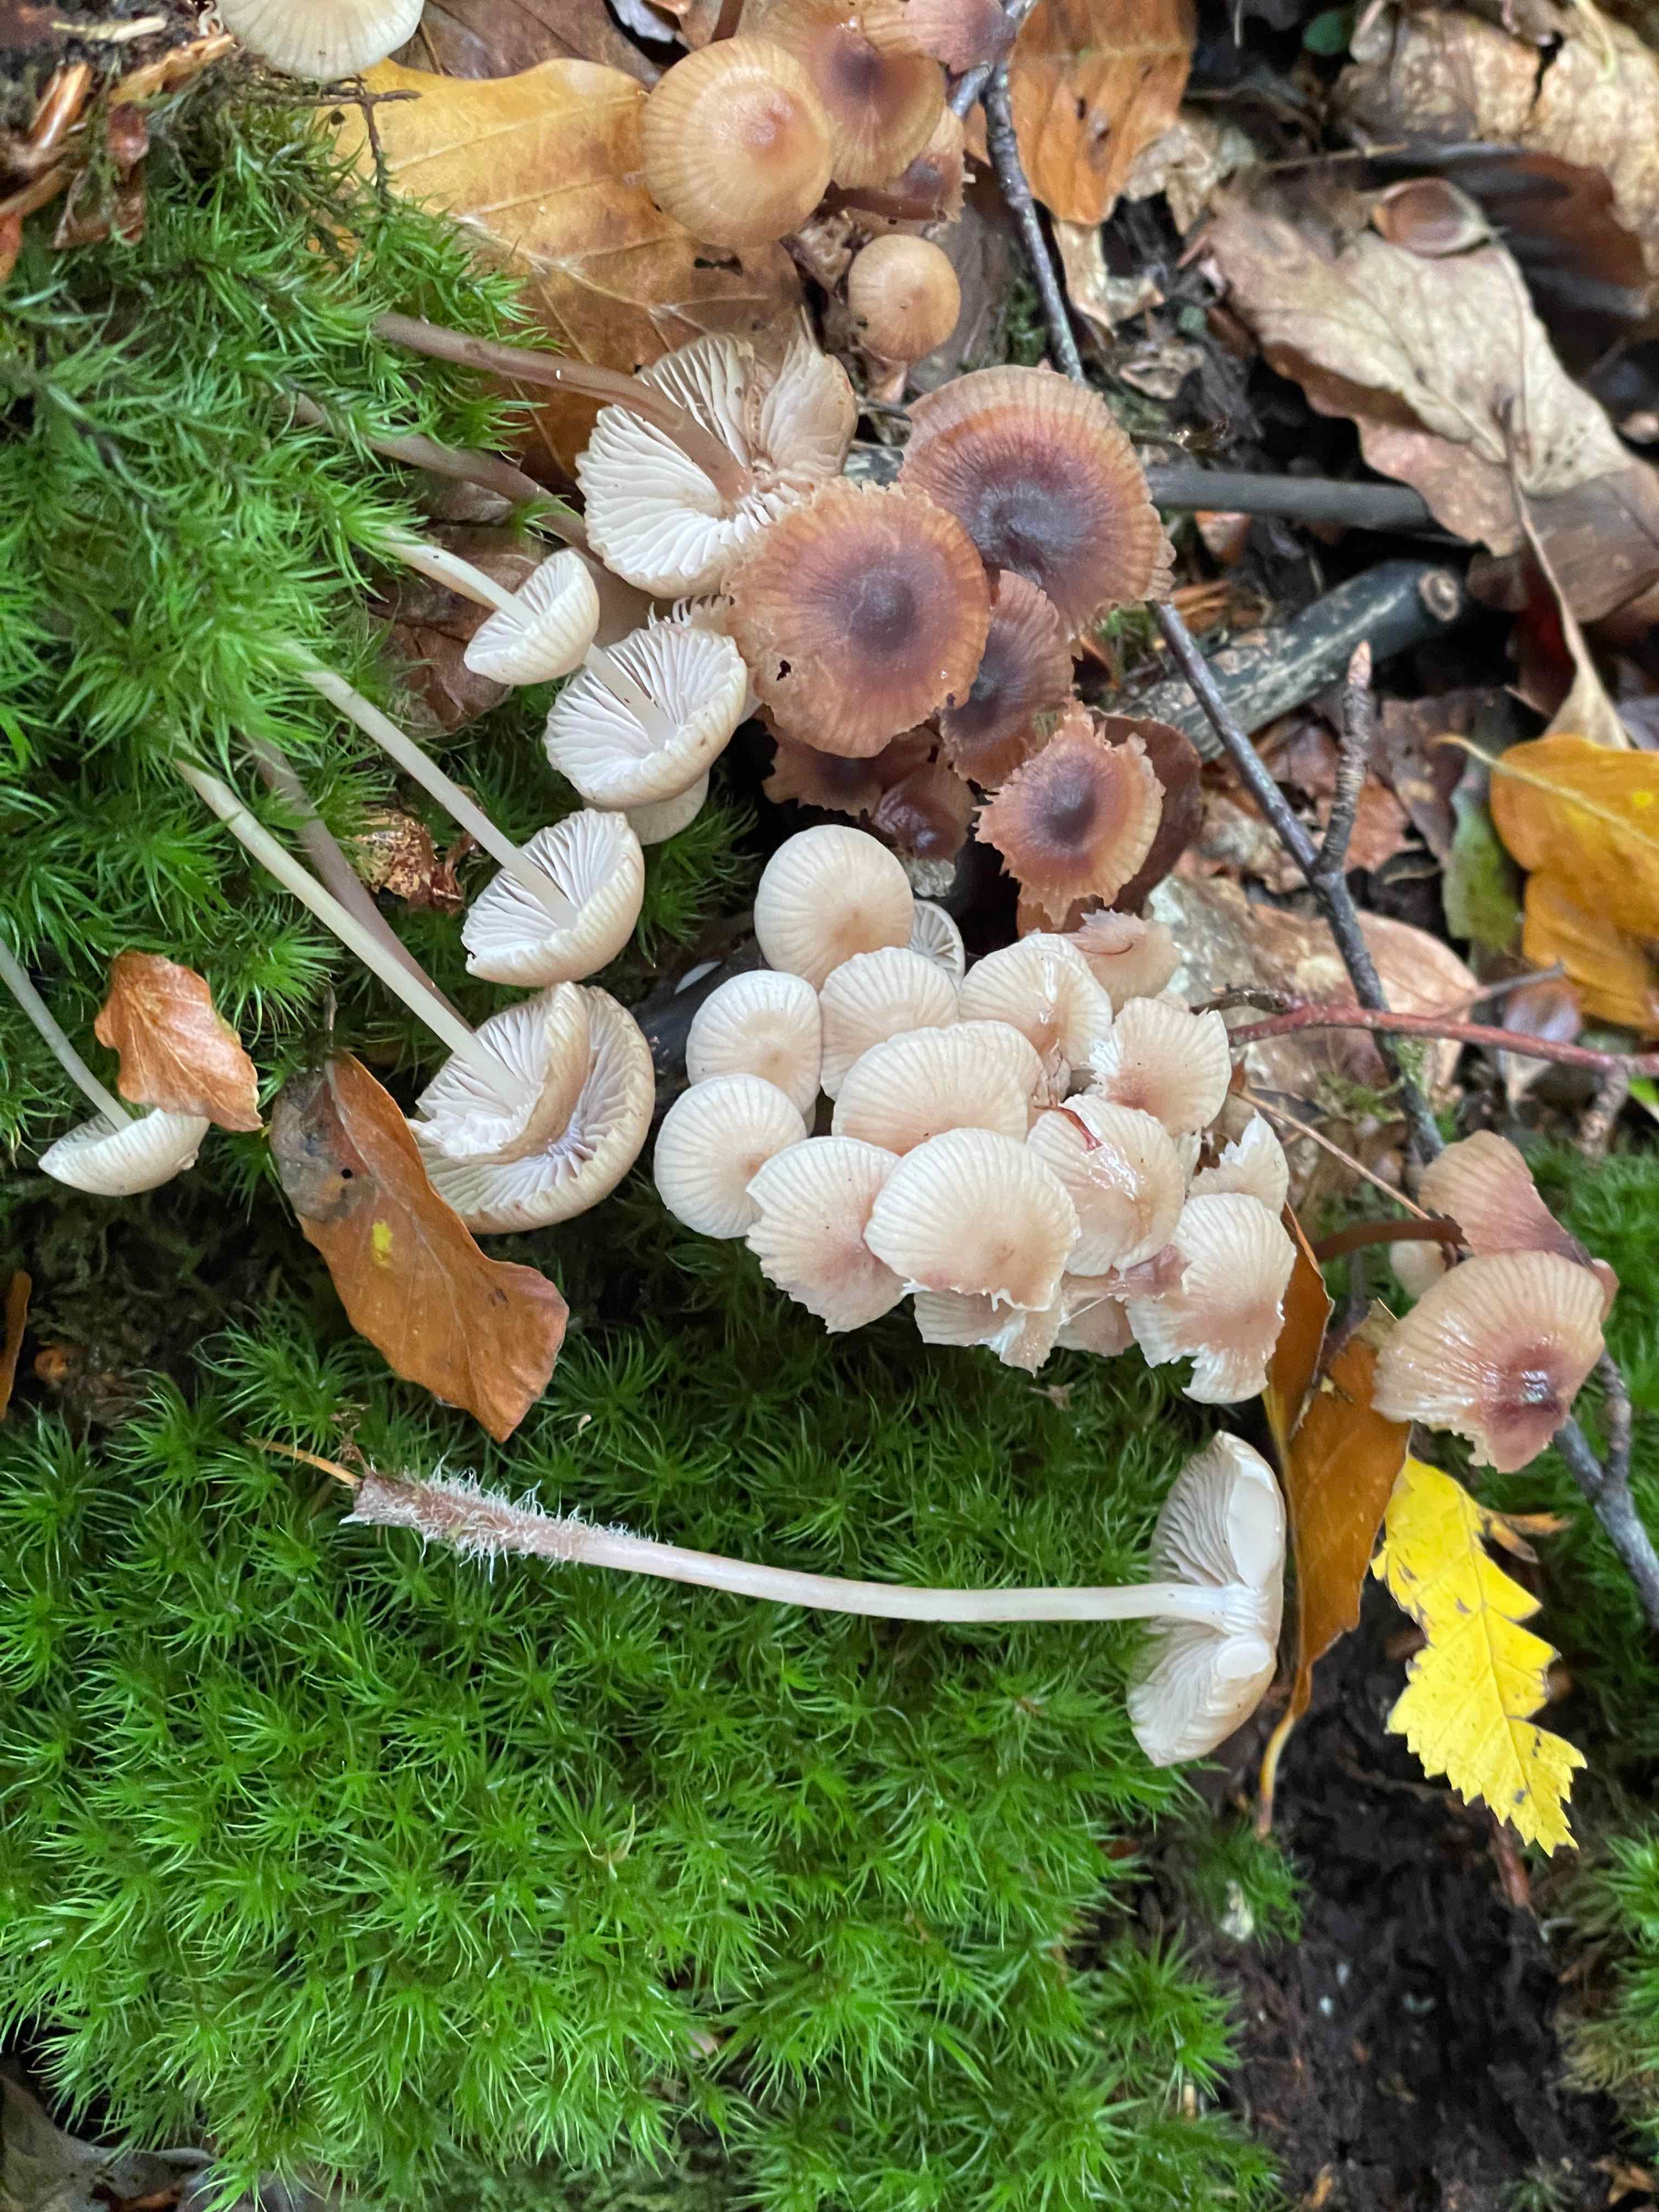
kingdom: Fungi
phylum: Basidiomycota
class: Agaricomycetes
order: Agaricales
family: Mycenaceae
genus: Mycena
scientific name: Mycena maculata
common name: rødplettet huesvamp
